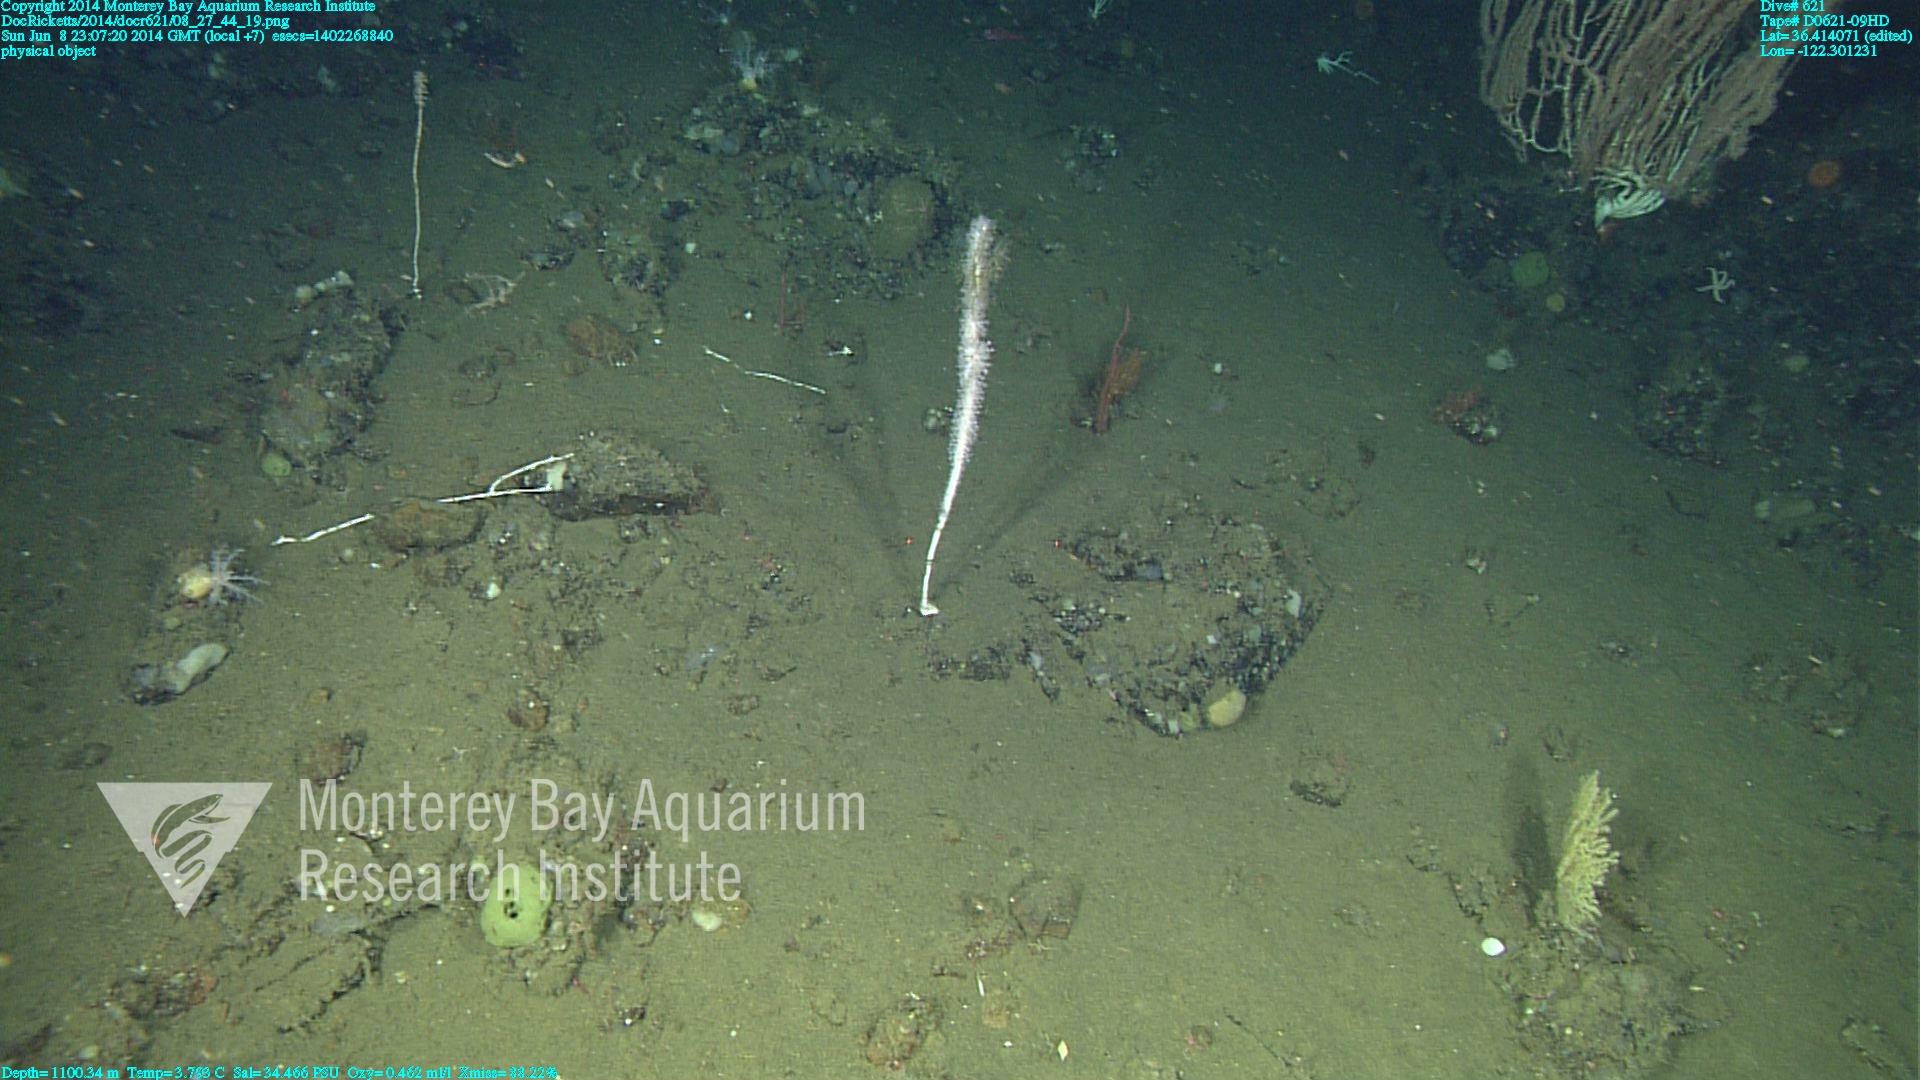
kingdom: Animalia
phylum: Cnidaria
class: Anthozoa
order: Scleralcyonacea
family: Keratoisididae
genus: Isidella
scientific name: Isidella
